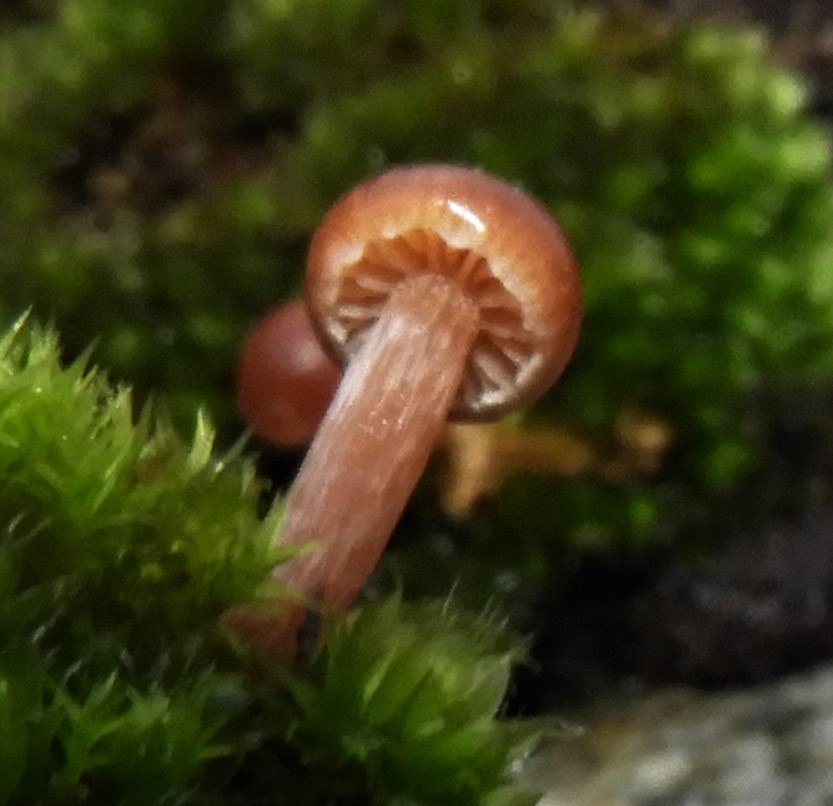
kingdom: Fungi
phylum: Basidiomycota
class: Agaricomycetes
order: Agaricales
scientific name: Agaricales
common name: champignonordenen
